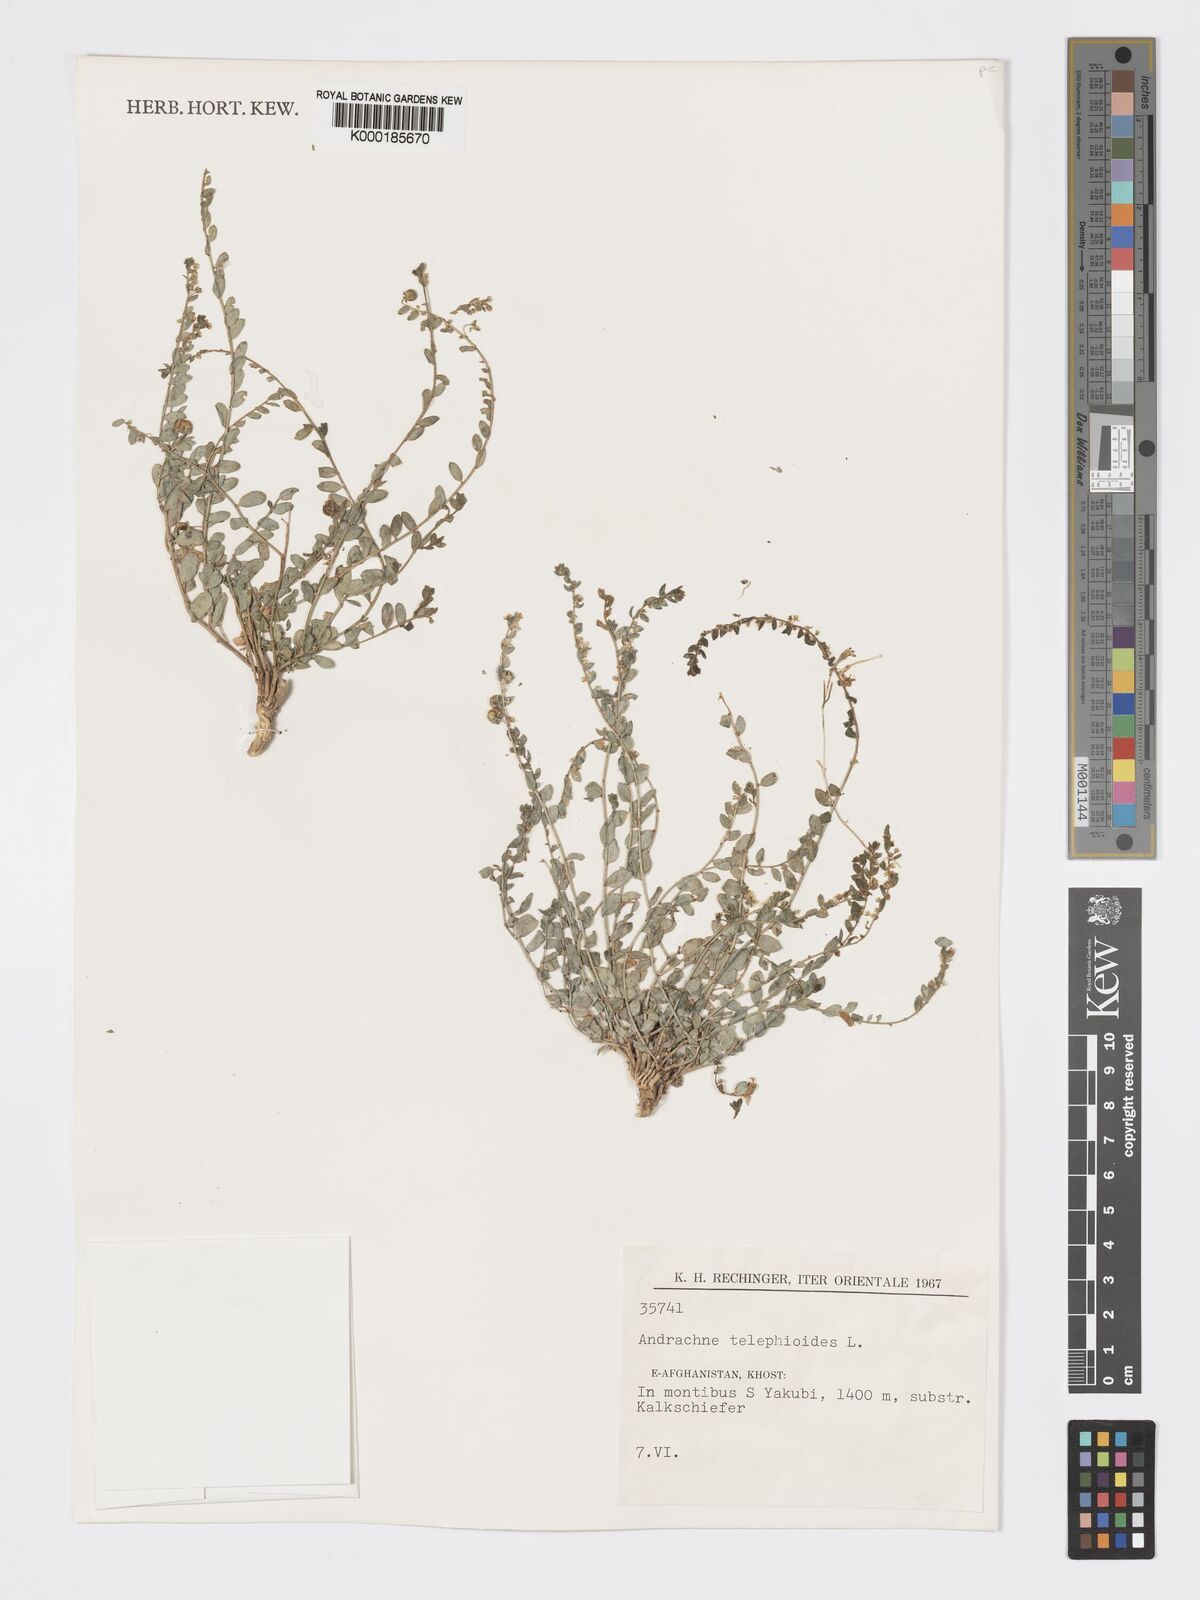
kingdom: Plantae
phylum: Tracheophyta
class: Magnoliopsida
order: Malpighiales
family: Phyllanthaceae
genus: Andrachne
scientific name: Andrachne telephioides
